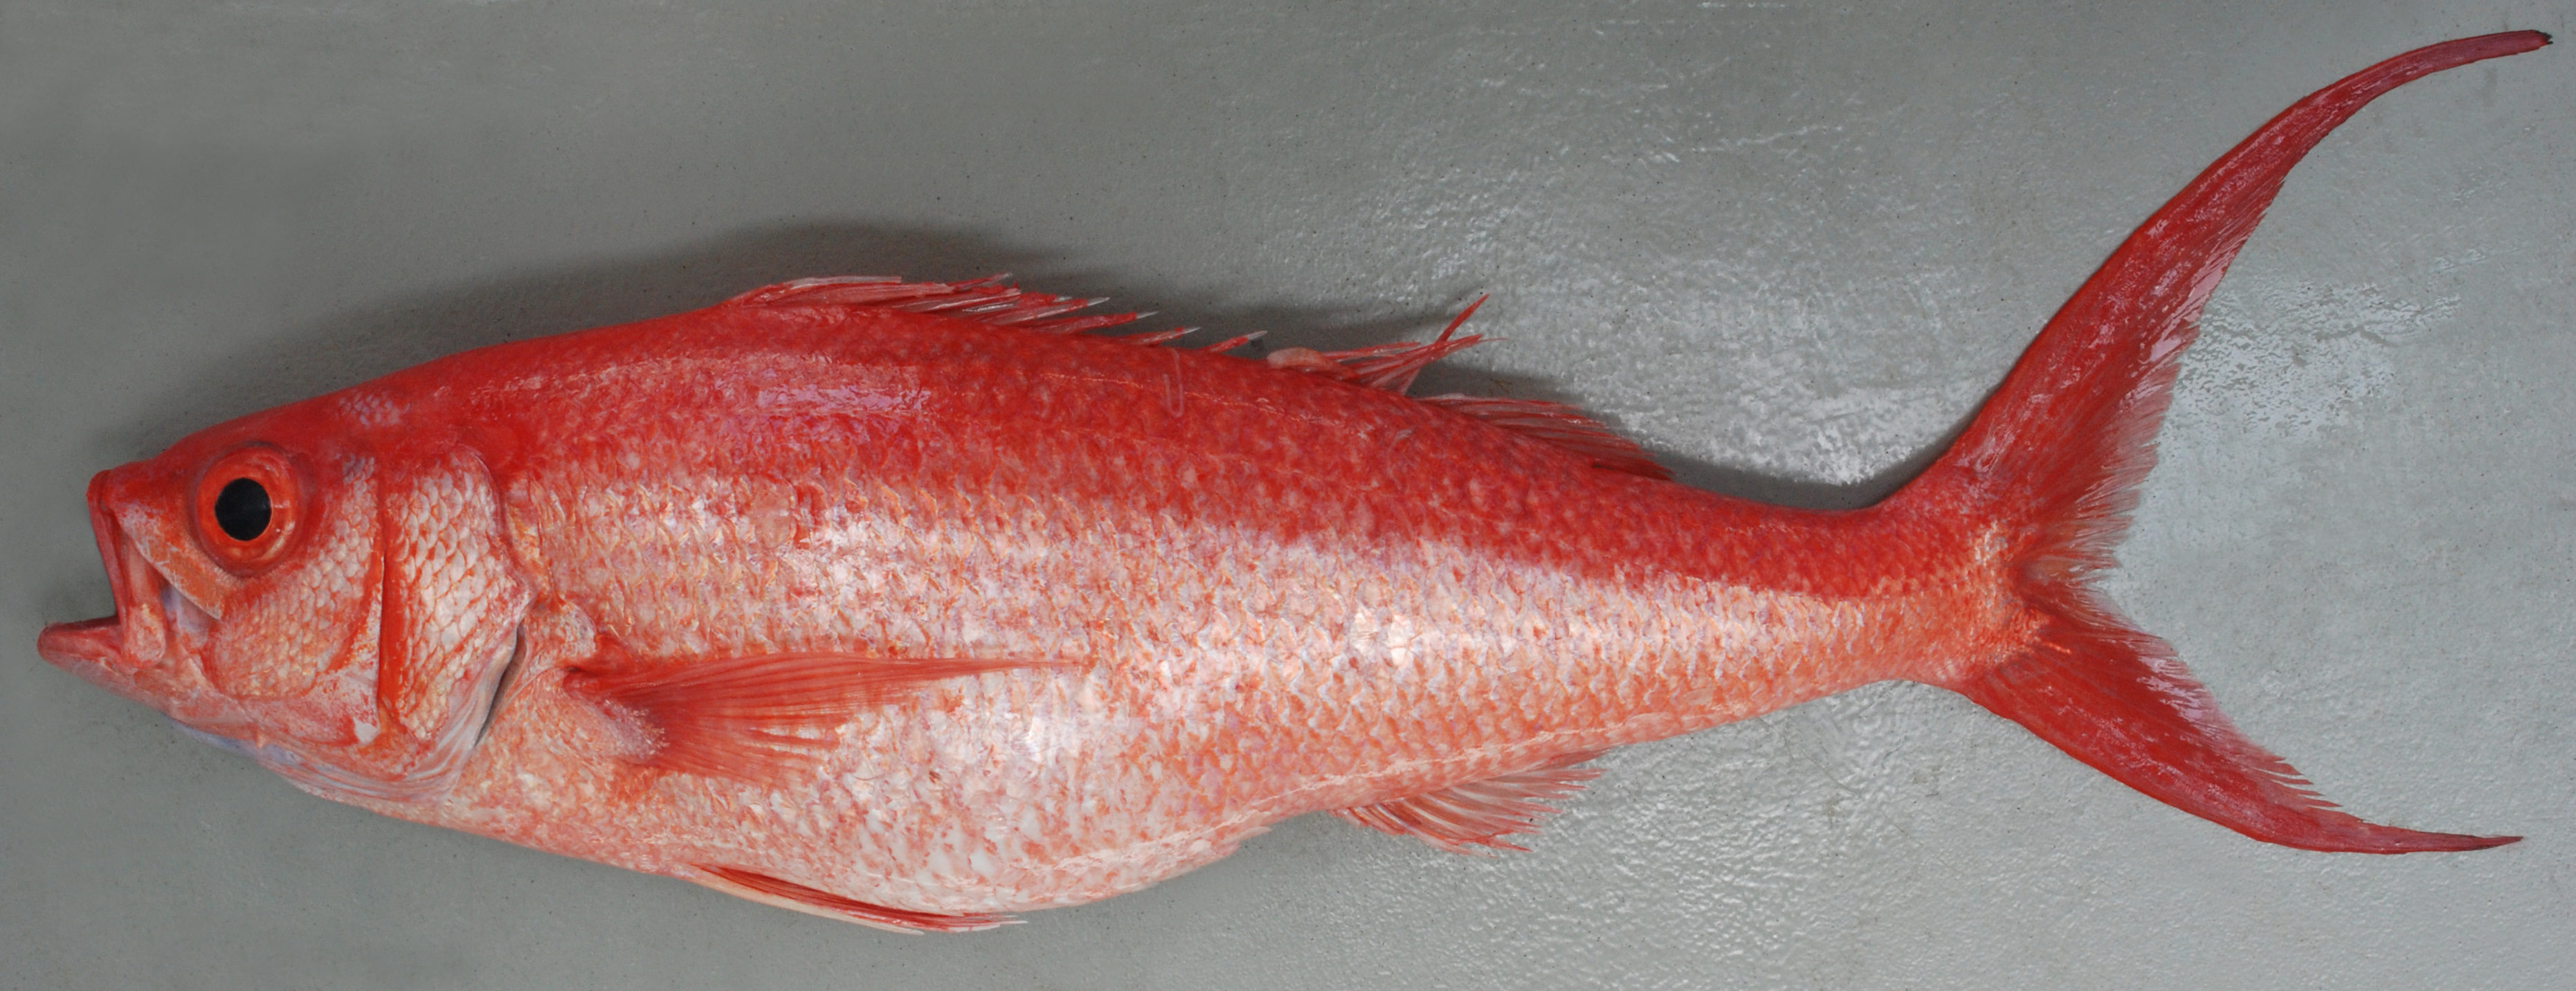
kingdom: Animalia
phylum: Chordata
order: Perciformes
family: Lutjanidae
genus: Etelis
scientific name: Etelis coruscans
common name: Flame snapper
